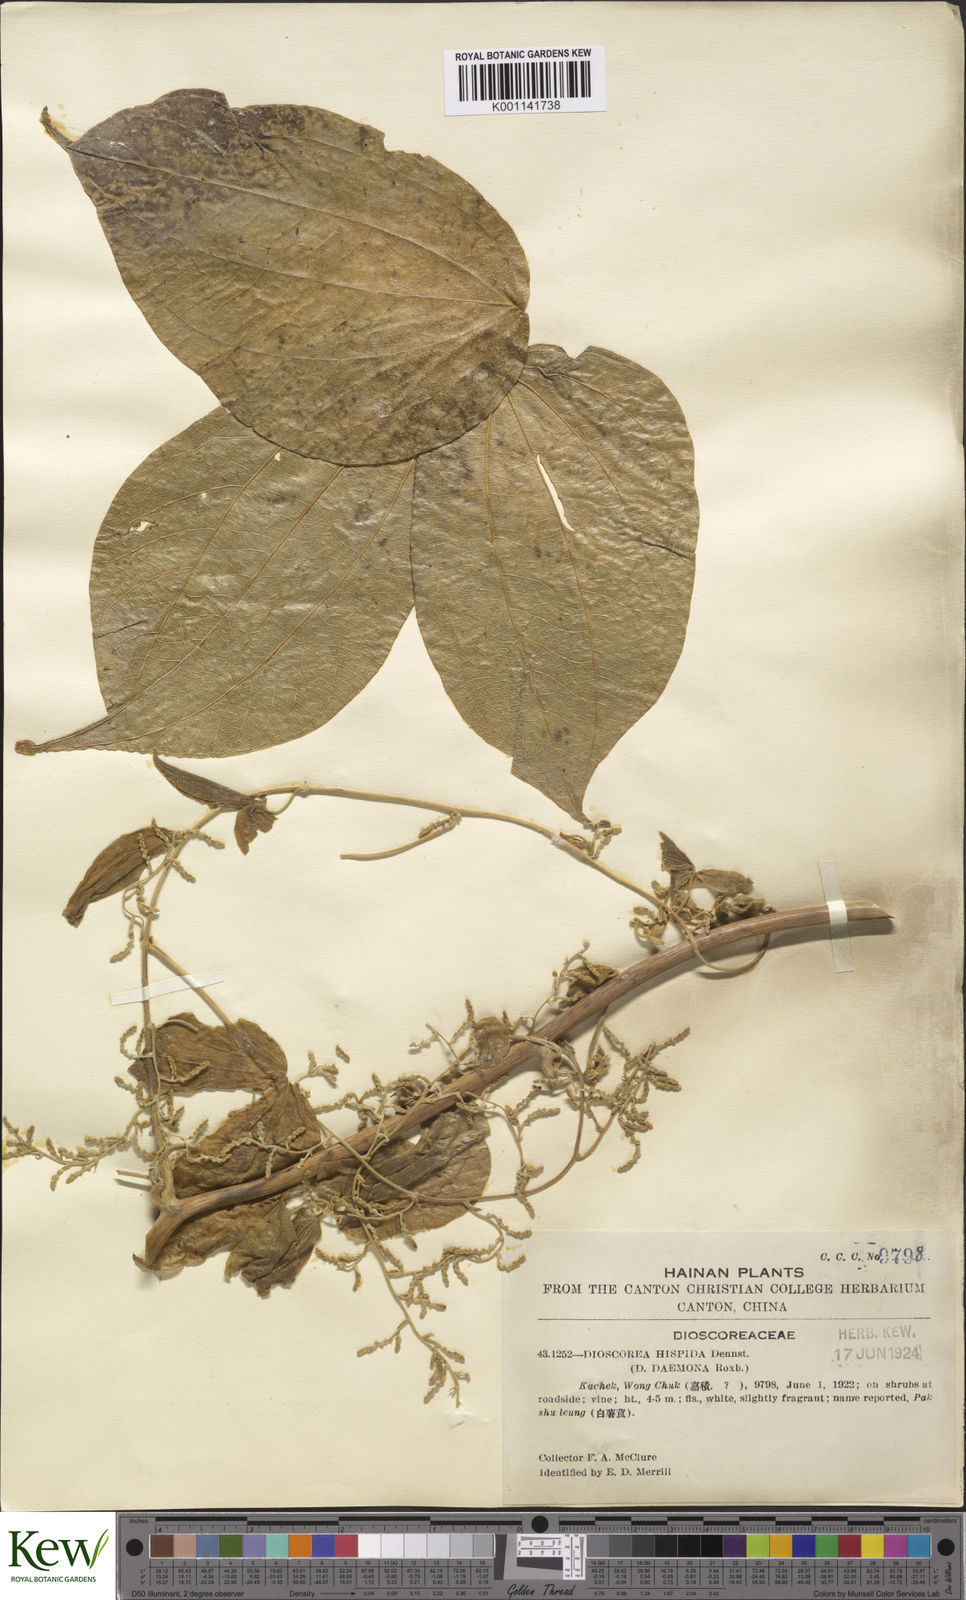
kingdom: Plantae
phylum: Tracheophyta
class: Liliopsida
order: Dioscoreales
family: Dioscoreaceae
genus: Dioscorea
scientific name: Dioscorea hispida
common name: Asiatic bitter yam
